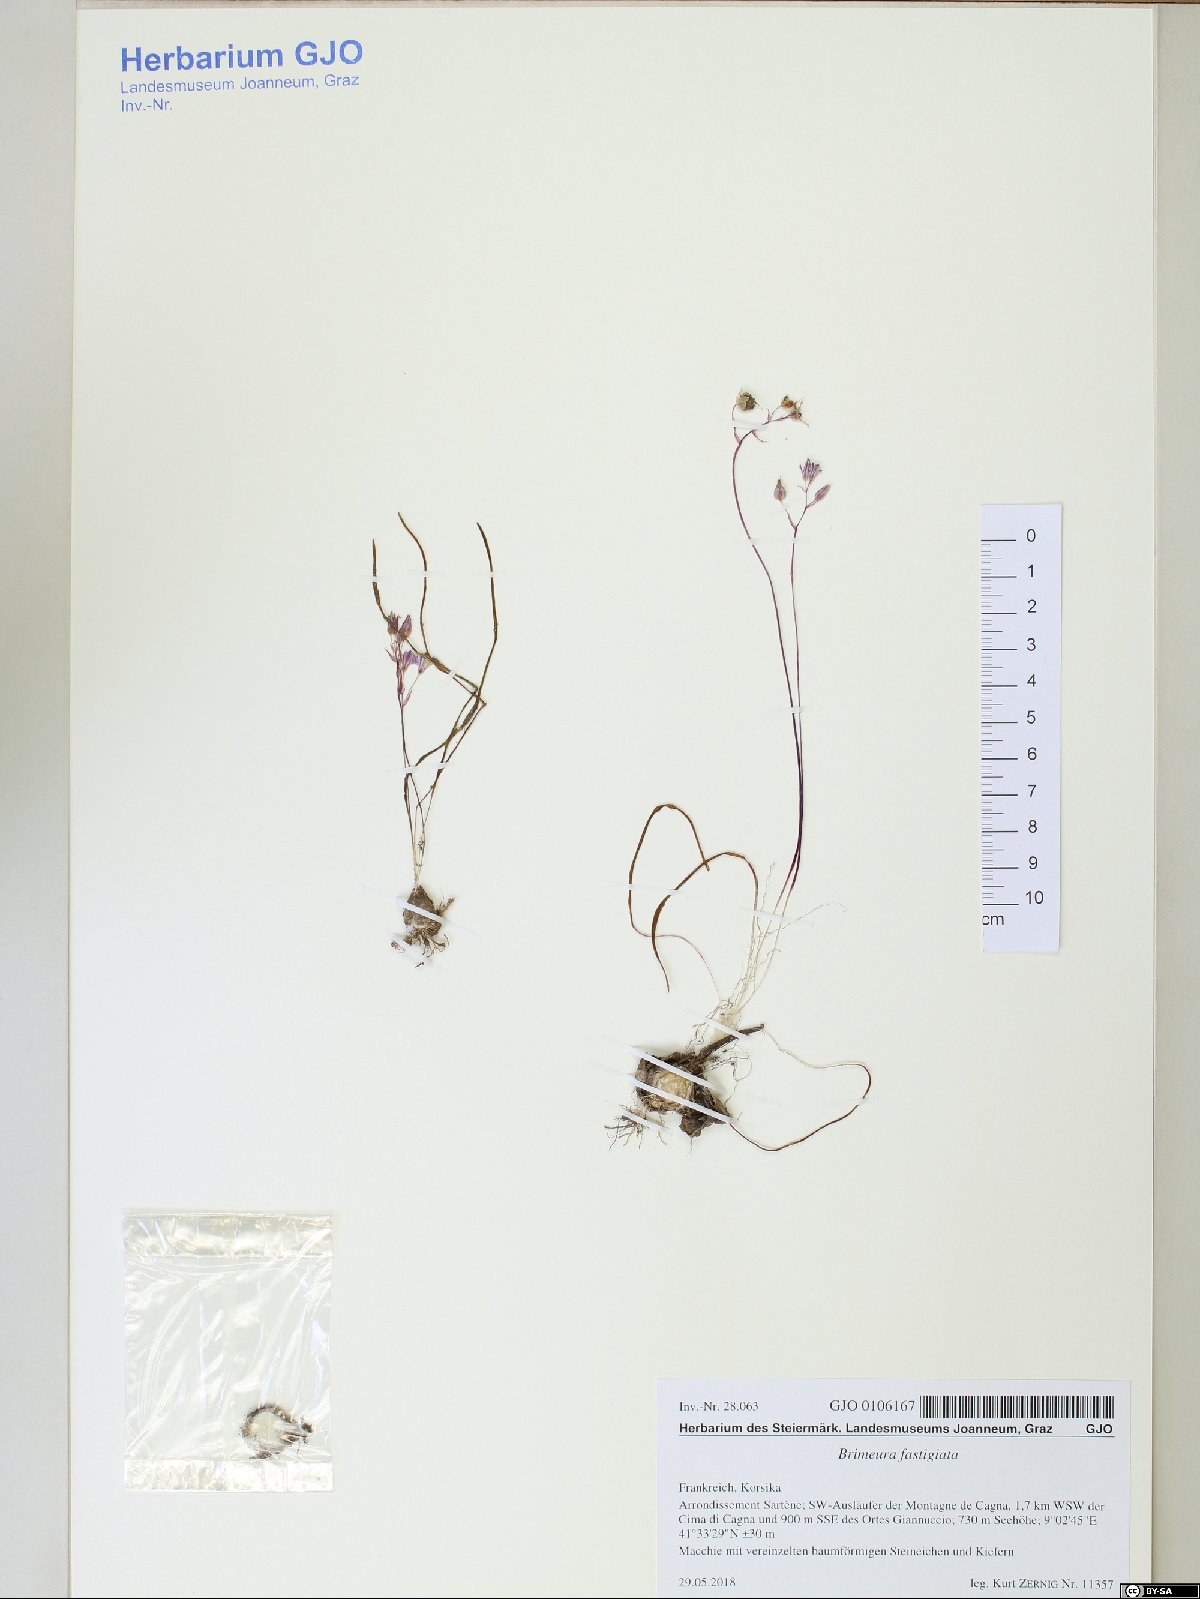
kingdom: Plantae
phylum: Tracheophyta
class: Liliopsida
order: Asparagales
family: Asparagaceae
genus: Brimeura
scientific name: Brimeura fastigiata
